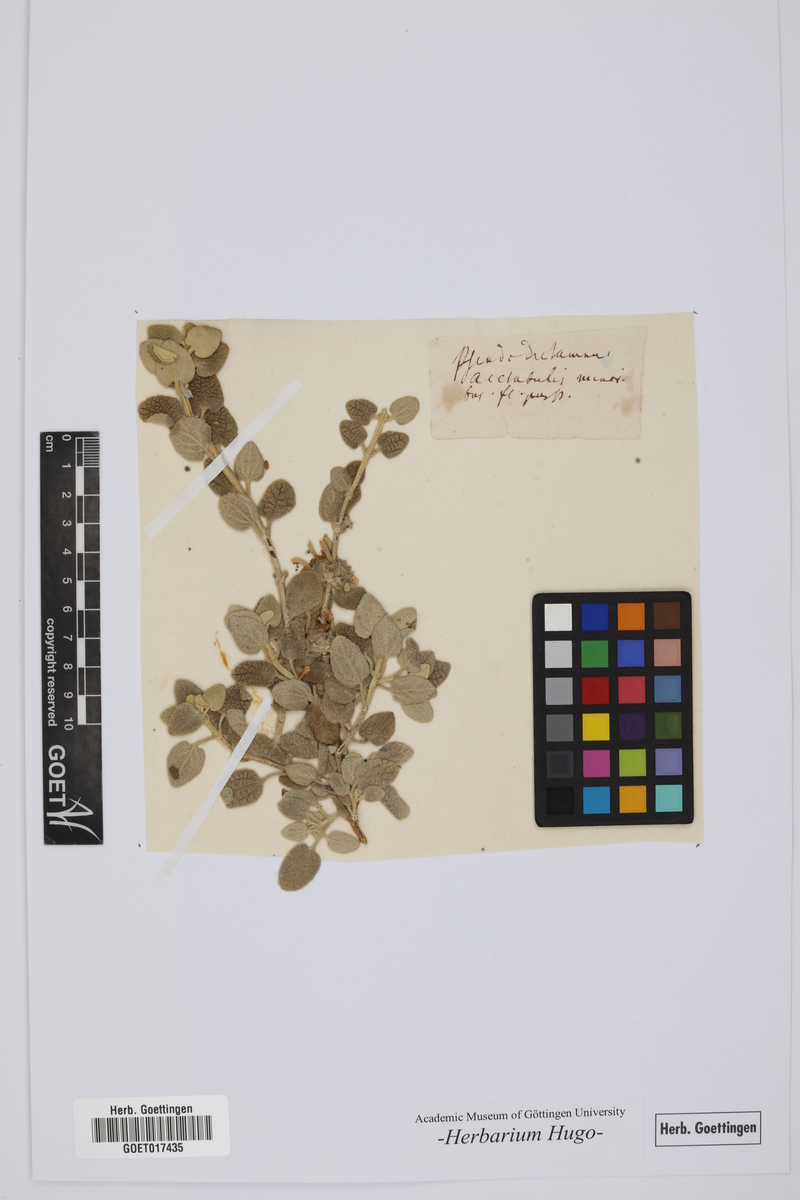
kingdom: Plantae
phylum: Tracheophyta
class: Magnoliopsida
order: Lamiales
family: Lamiaceae
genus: Pseudodictamnus
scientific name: Pseudodictamnus acetabulosus
